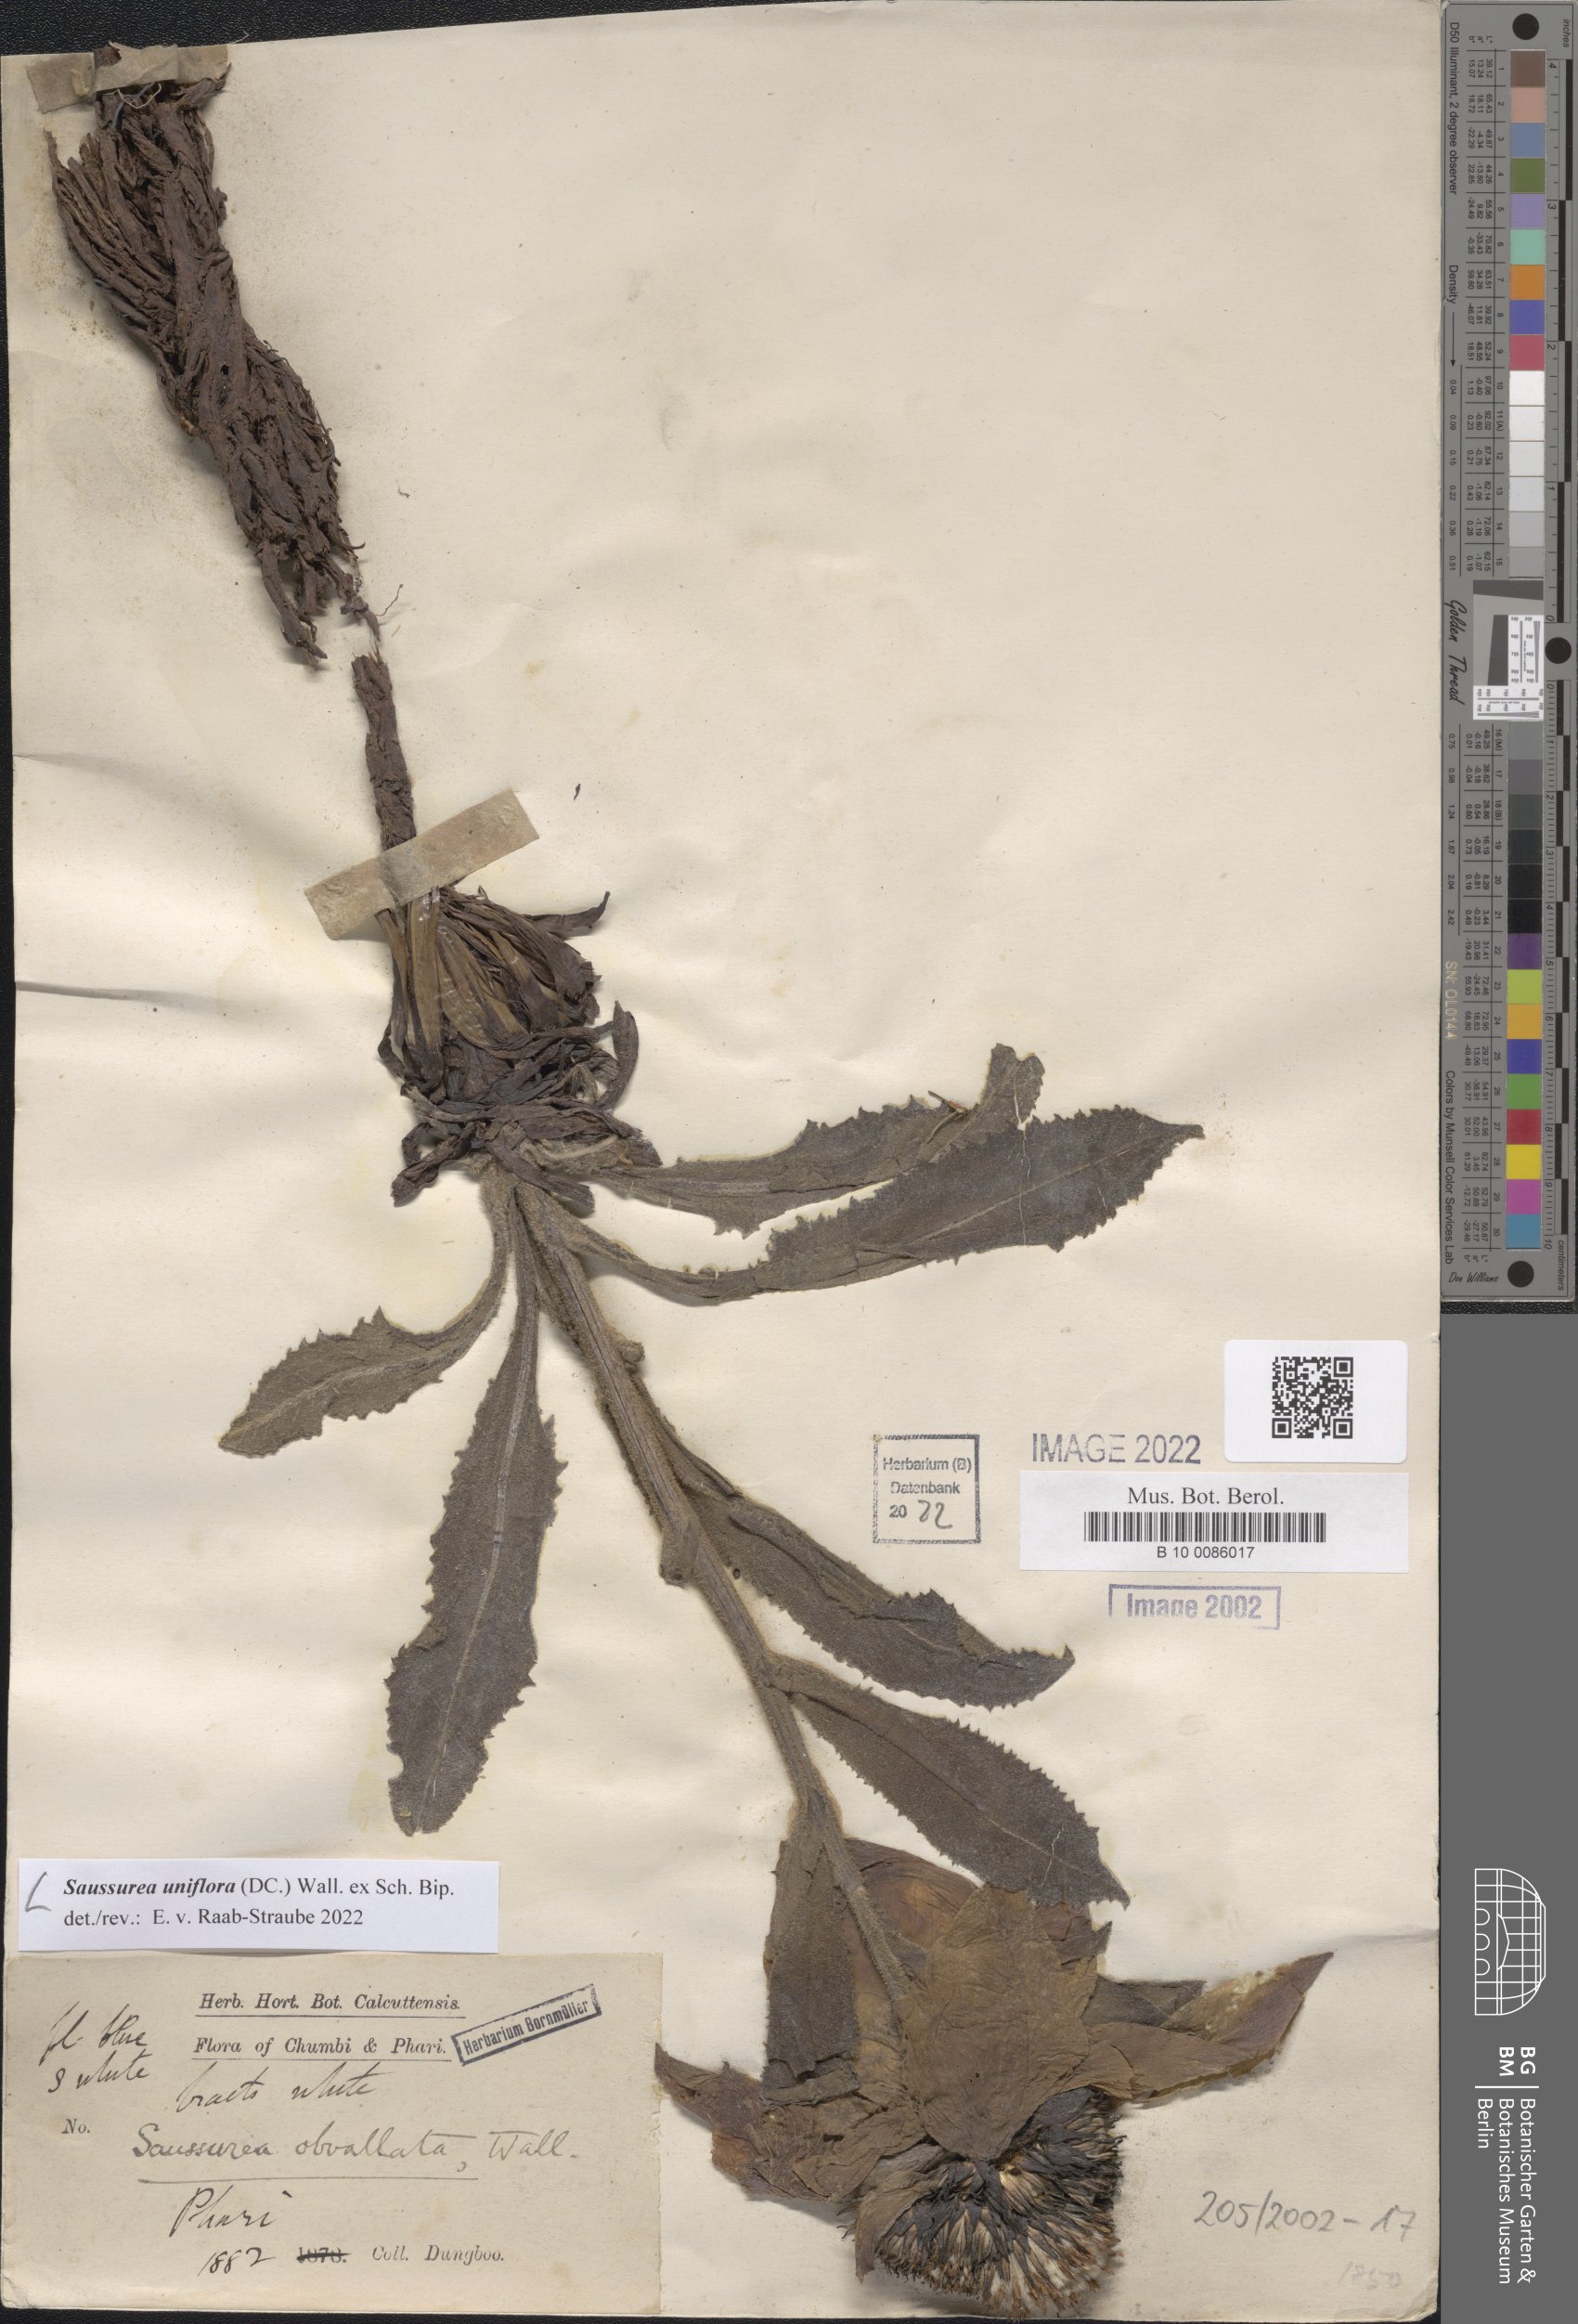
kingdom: Plantae
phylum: Tracheophyta
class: Magnoliopsida
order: Asterales
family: Asteraceae
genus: Saussurea
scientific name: Saussurea uniflora
